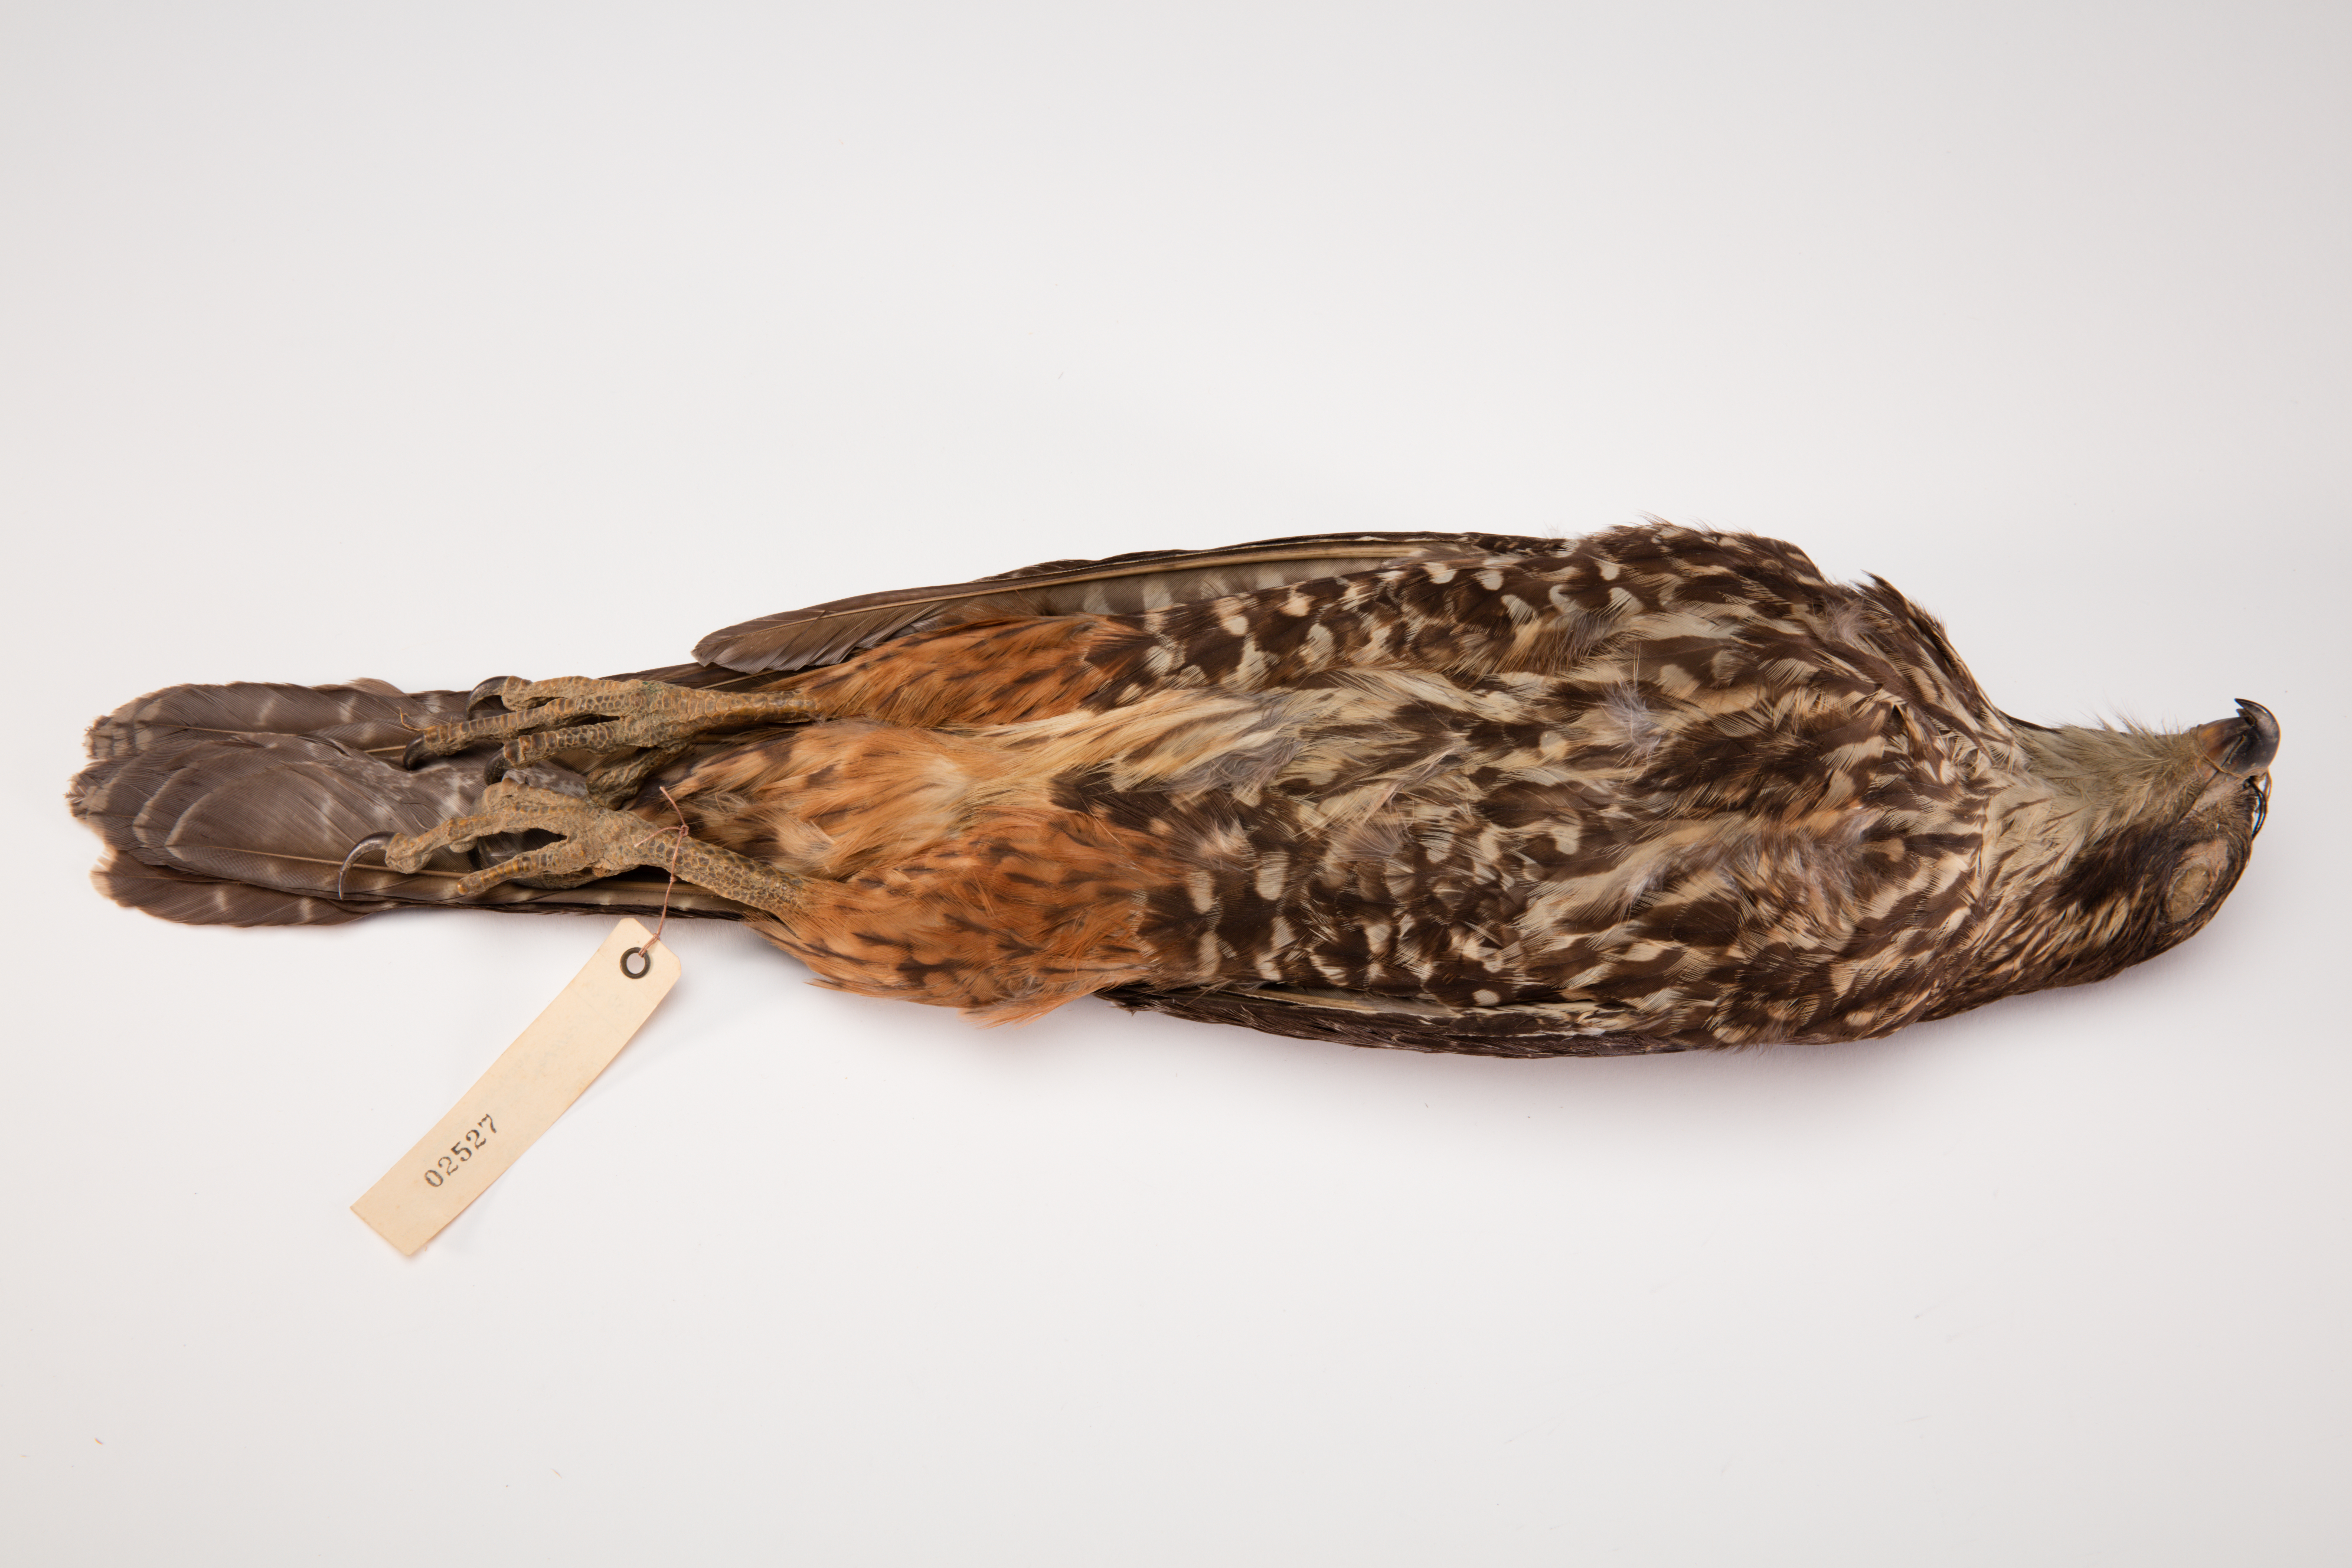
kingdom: Animalia
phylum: Chordata
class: Aves
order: Falconiformes
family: Falconidae
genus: Falco
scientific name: Falco novaeseelandiae
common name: New zealand falcon
